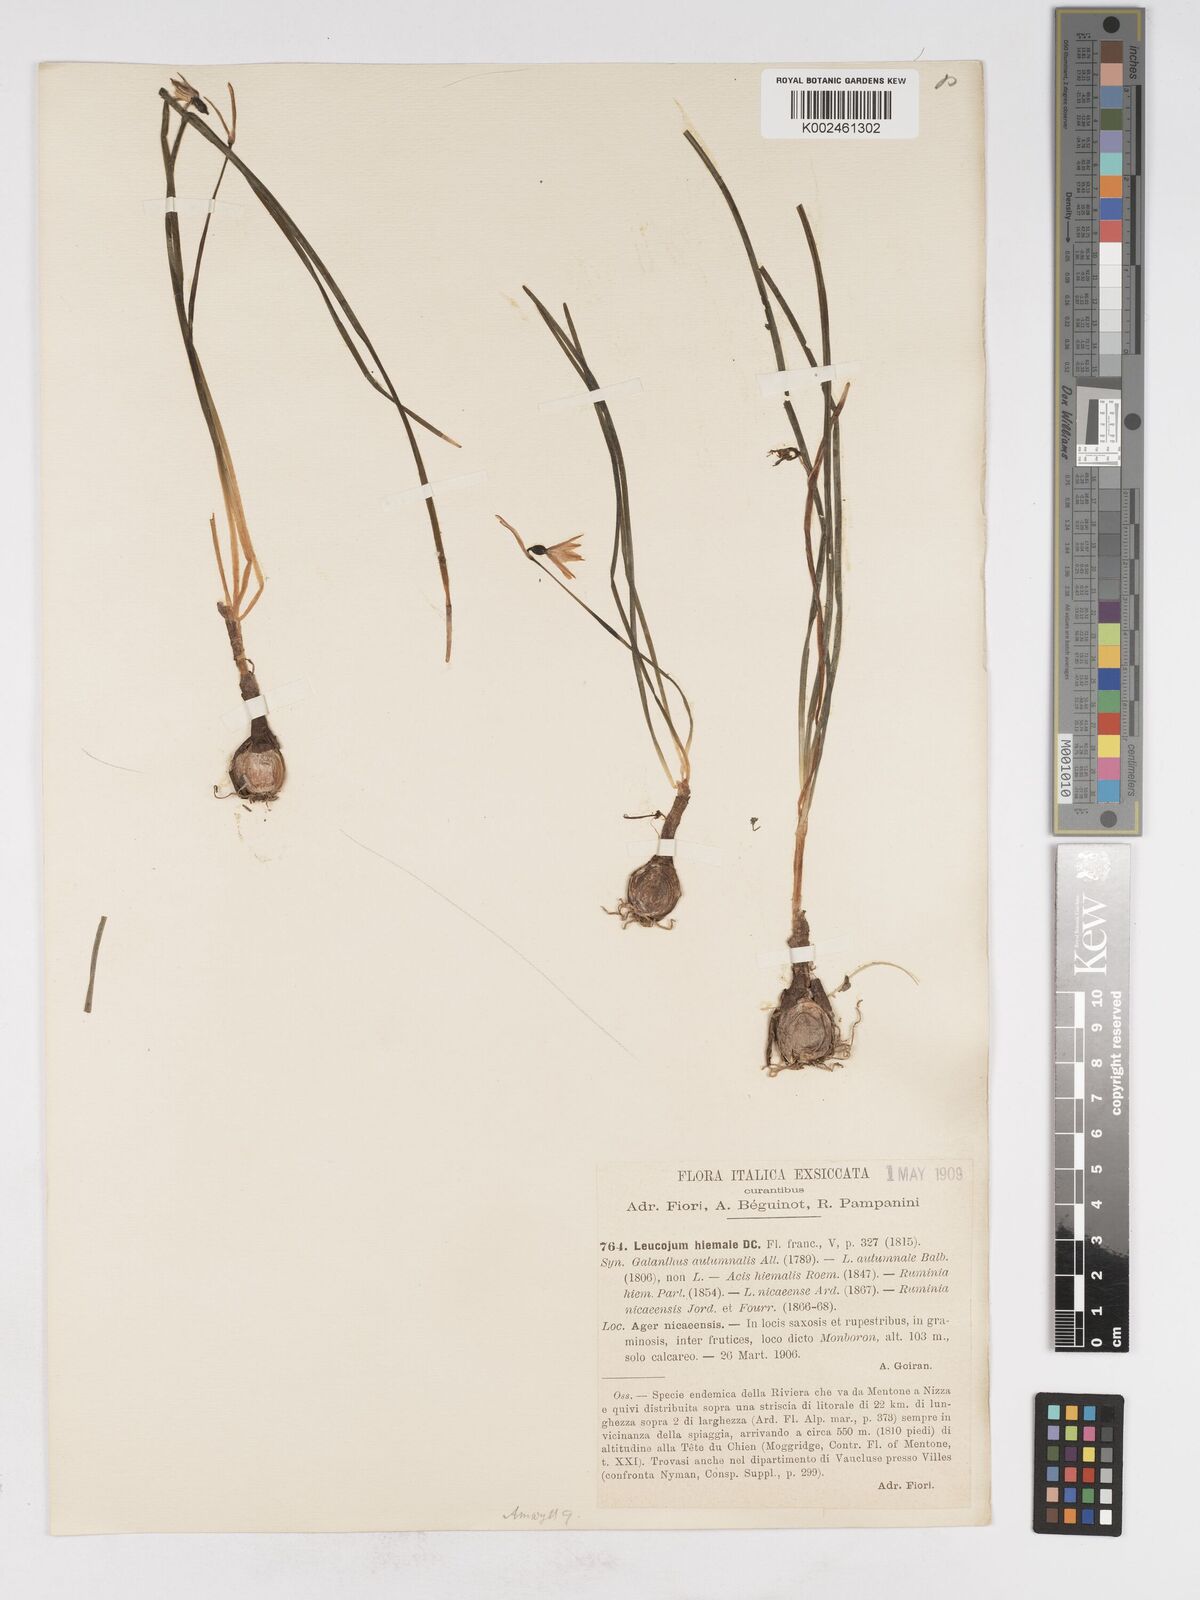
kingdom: Plantae
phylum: Tracheophyta
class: Liliopsida
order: Asparagales
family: Amaryllidaceae
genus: Acis
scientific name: Acis nicaeensis
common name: French snowflake
